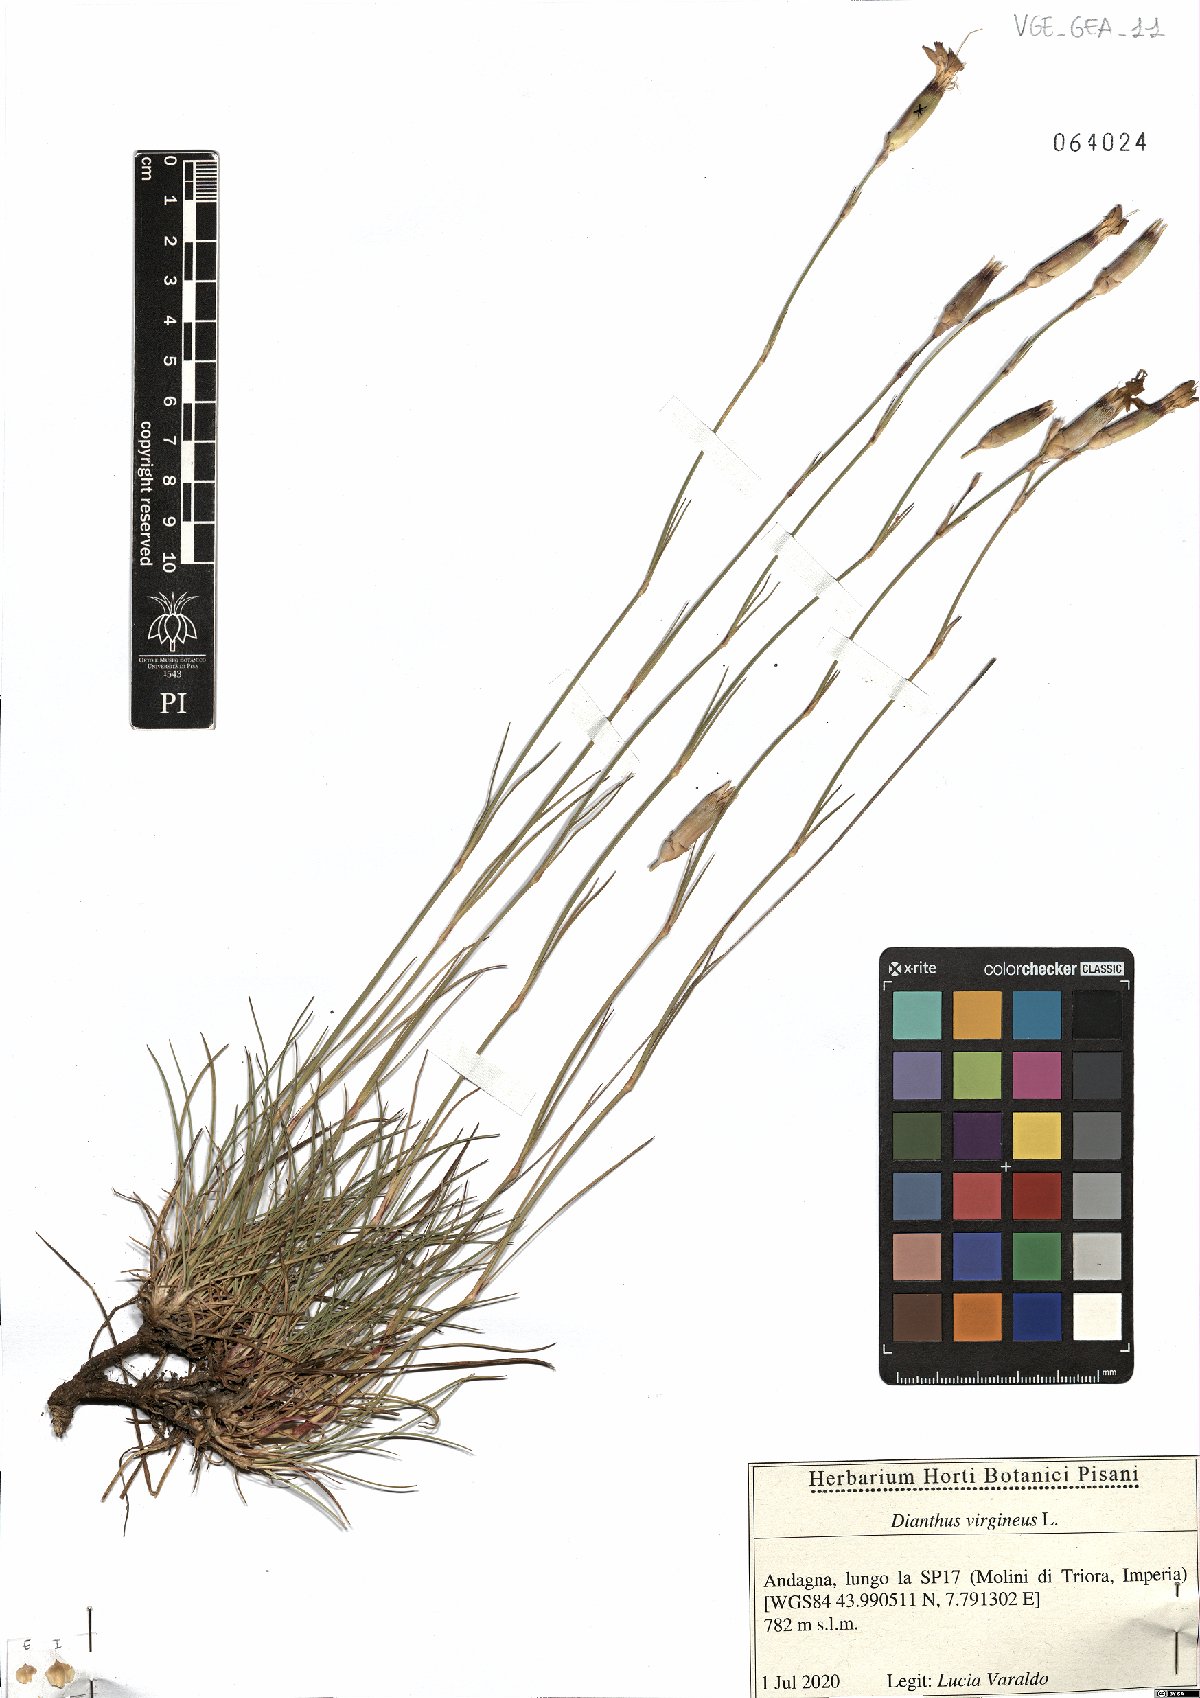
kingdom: Plantae
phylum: Tracheophyta
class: Magnoliopsida
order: Caryophyllales
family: Caryophyllaceae
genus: Dianthus
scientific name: Dianthus virgineus
